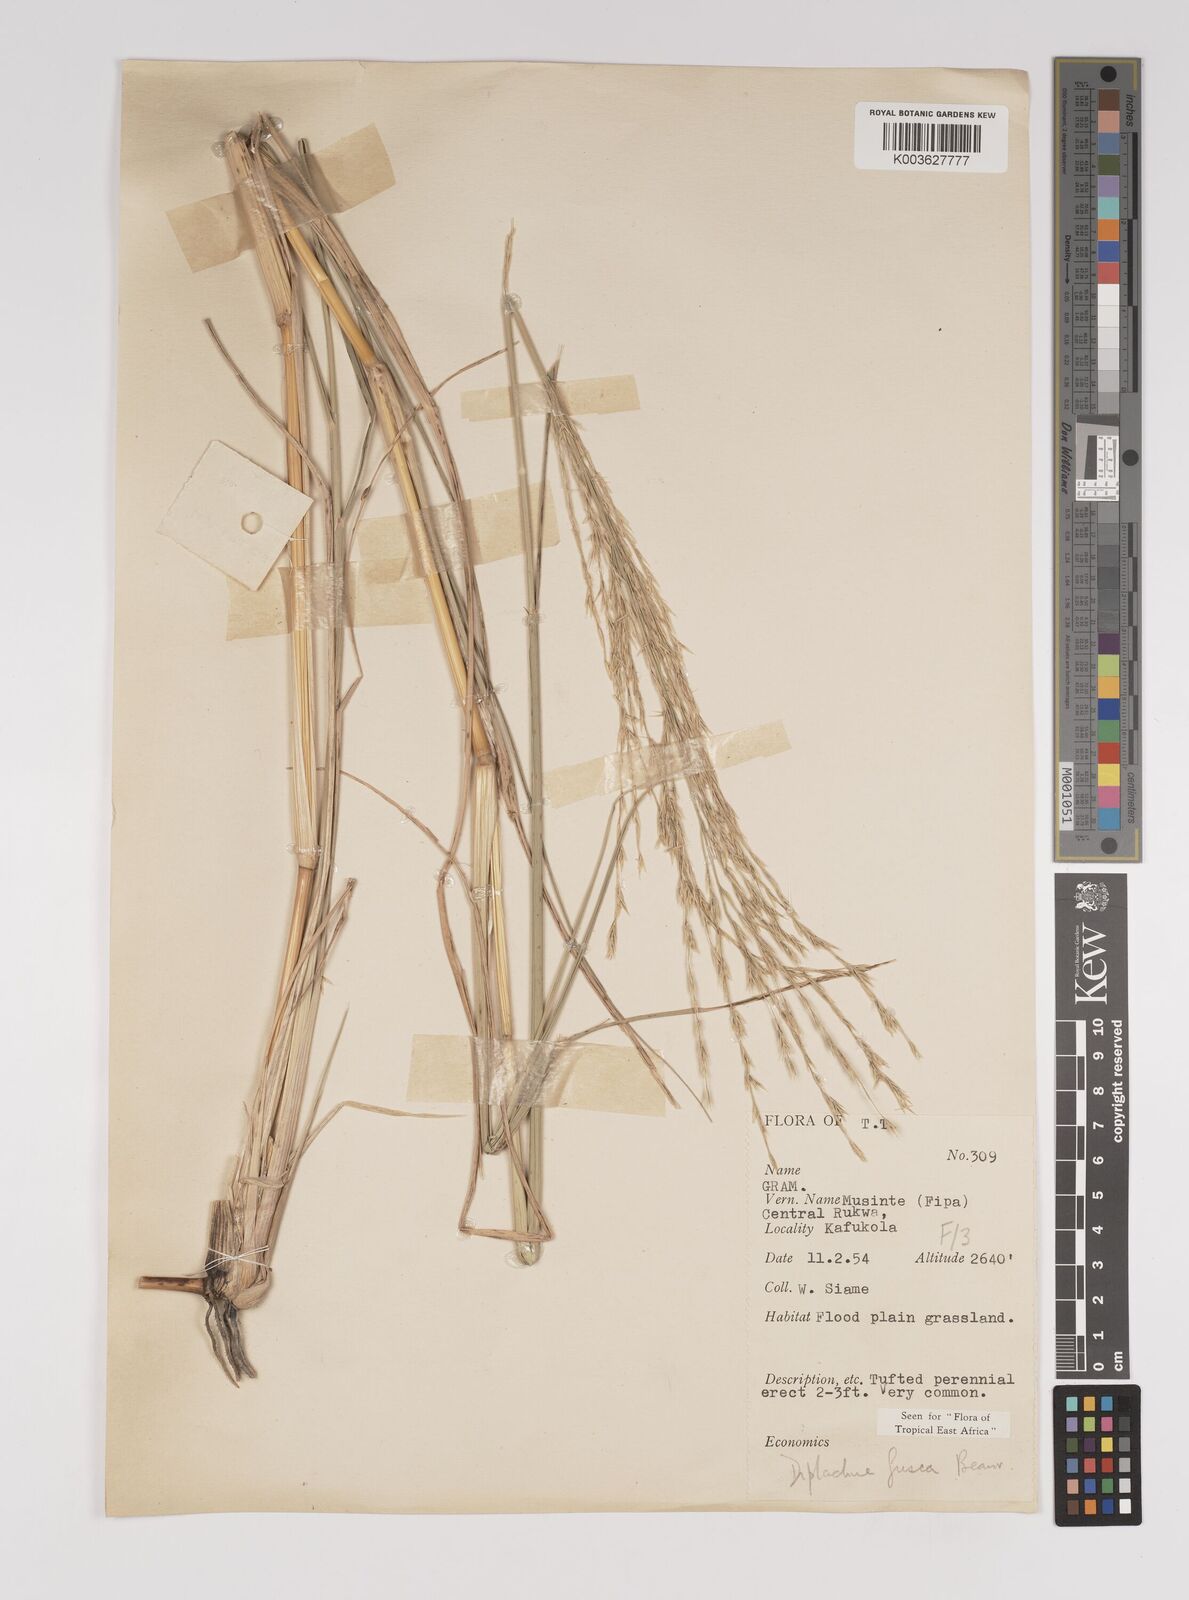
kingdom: Plantae
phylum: Tracheophyta
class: Liliopsida
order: Poales
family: Poaceae
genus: Diplachne
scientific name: Diplachne fusca
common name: Brown beetle grass
